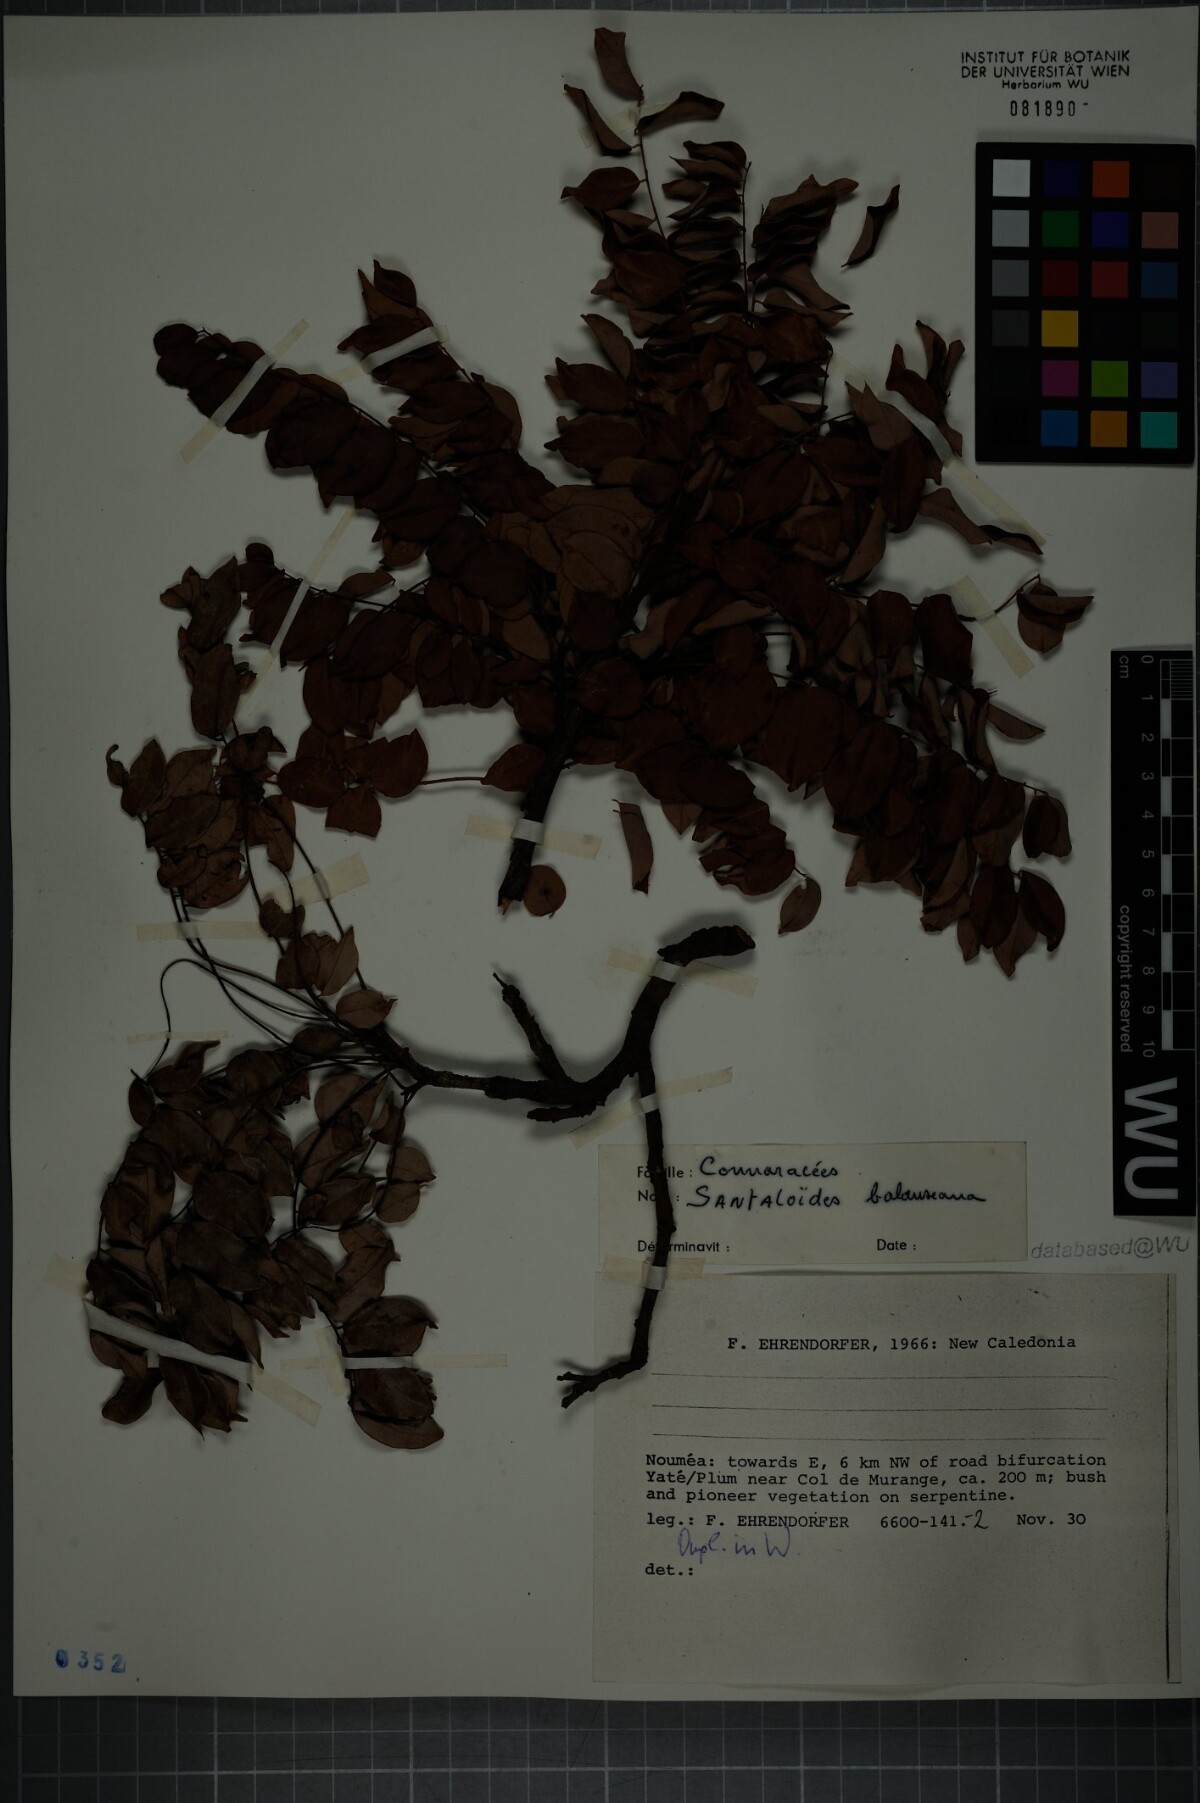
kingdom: Plantae
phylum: Tracheophyta
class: Magnoliopsida
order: Oxalidales
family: Connaraceae
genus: Rourea
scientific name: Rourea balansana
